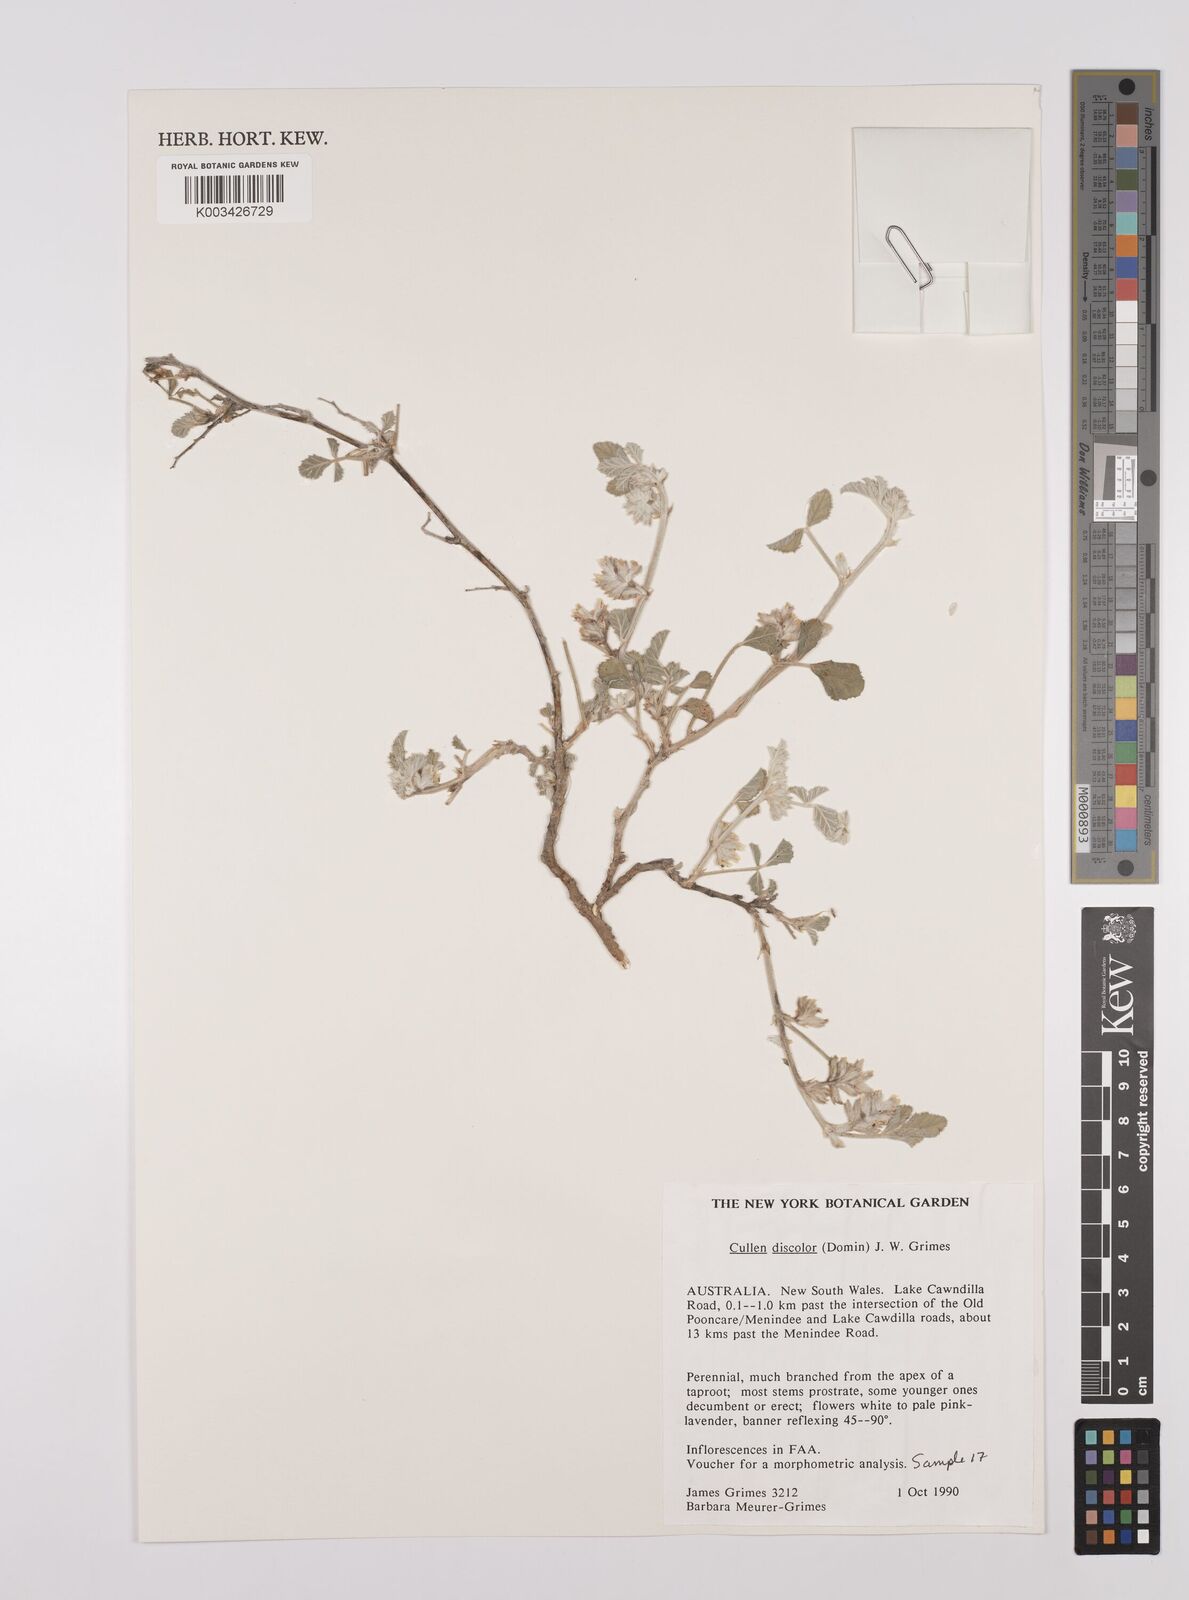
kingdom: Plantae
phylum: Tracheophyta
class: Magnoliopsida
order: Fabales
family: Fabaceae
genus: Cullen
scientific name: Cullen discolor
